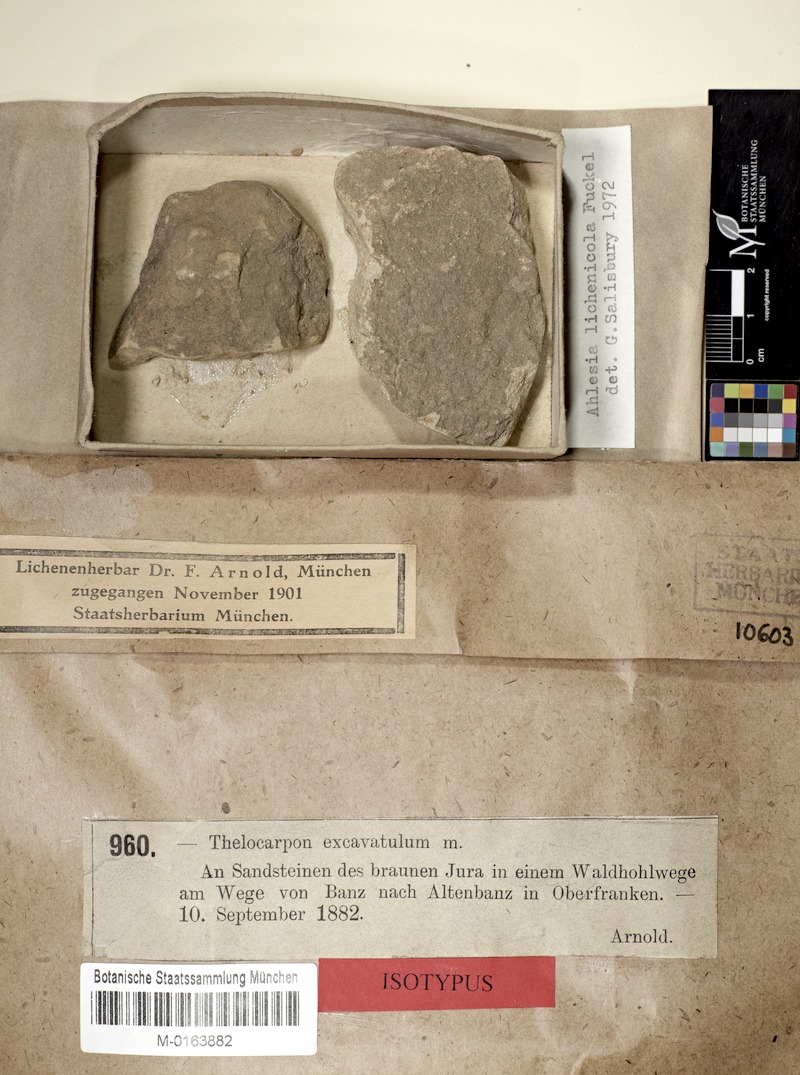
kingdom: Fungi
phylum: Ascomycota
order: Thelocarpales
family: Thelocarpaceae
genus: Thelocarpon
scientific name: Thelocarpon lichenicola
